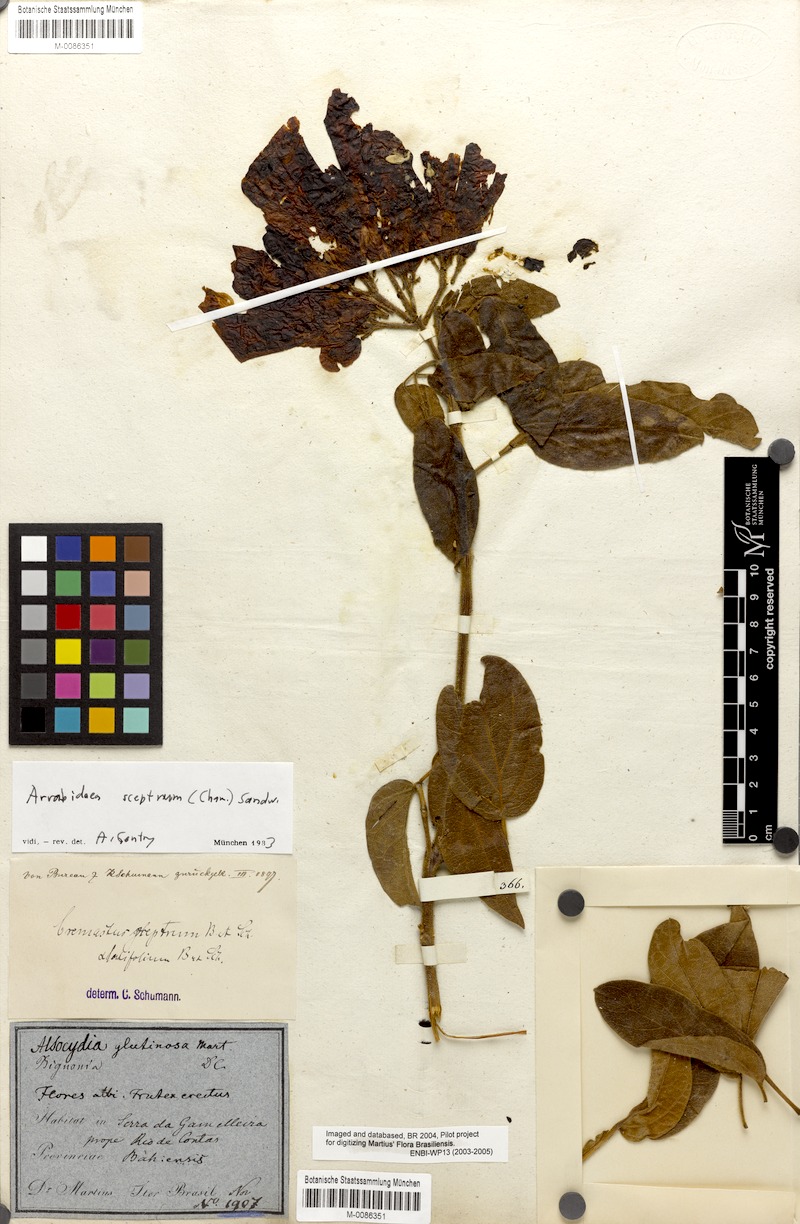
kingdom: Plantae
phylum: Tracheophyta
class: Magnoliopsida
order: Lamiales
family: Bignoniaceae
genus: Cuspidaria
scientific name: Cuspidaria sceptrum
